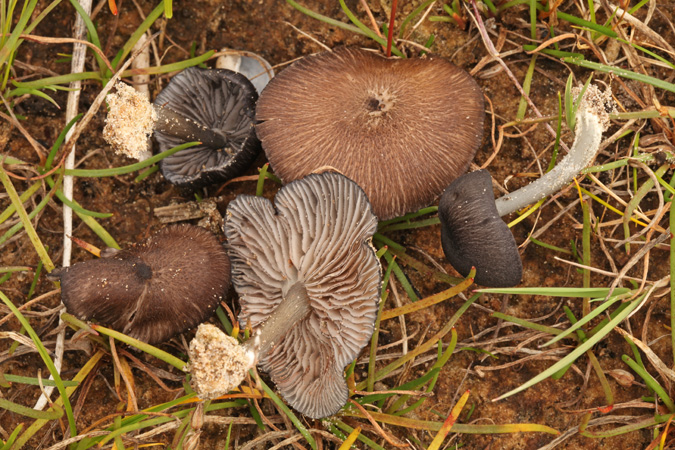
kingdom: Fungi
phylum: Basidiomycota
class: Agaricomycetes
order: Agaricales
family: Entolomataceae
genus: Entoloma
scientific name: Entoloma
